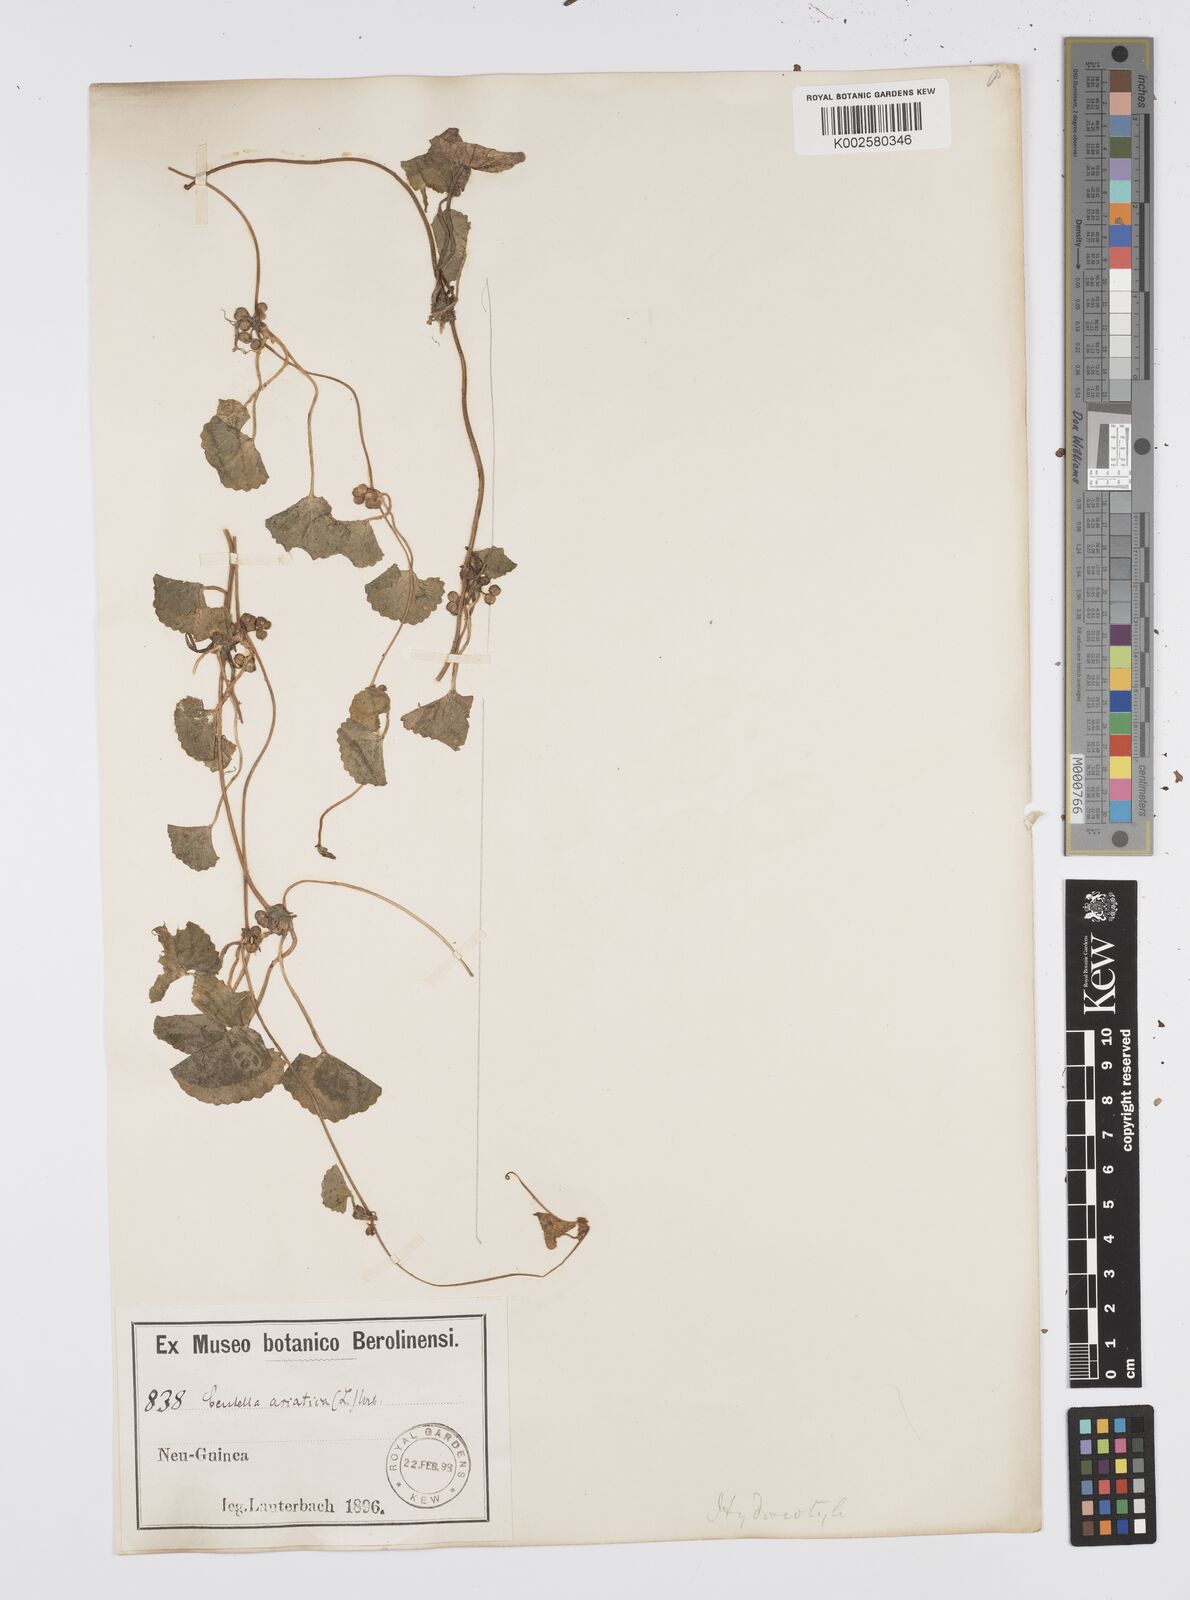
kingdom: Plantae
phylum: Tracheophyta
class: Magnoliopsida
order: Apiales
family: Apiaceae
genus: Centella
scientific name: Centella asiatica
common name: Spadeleaf
